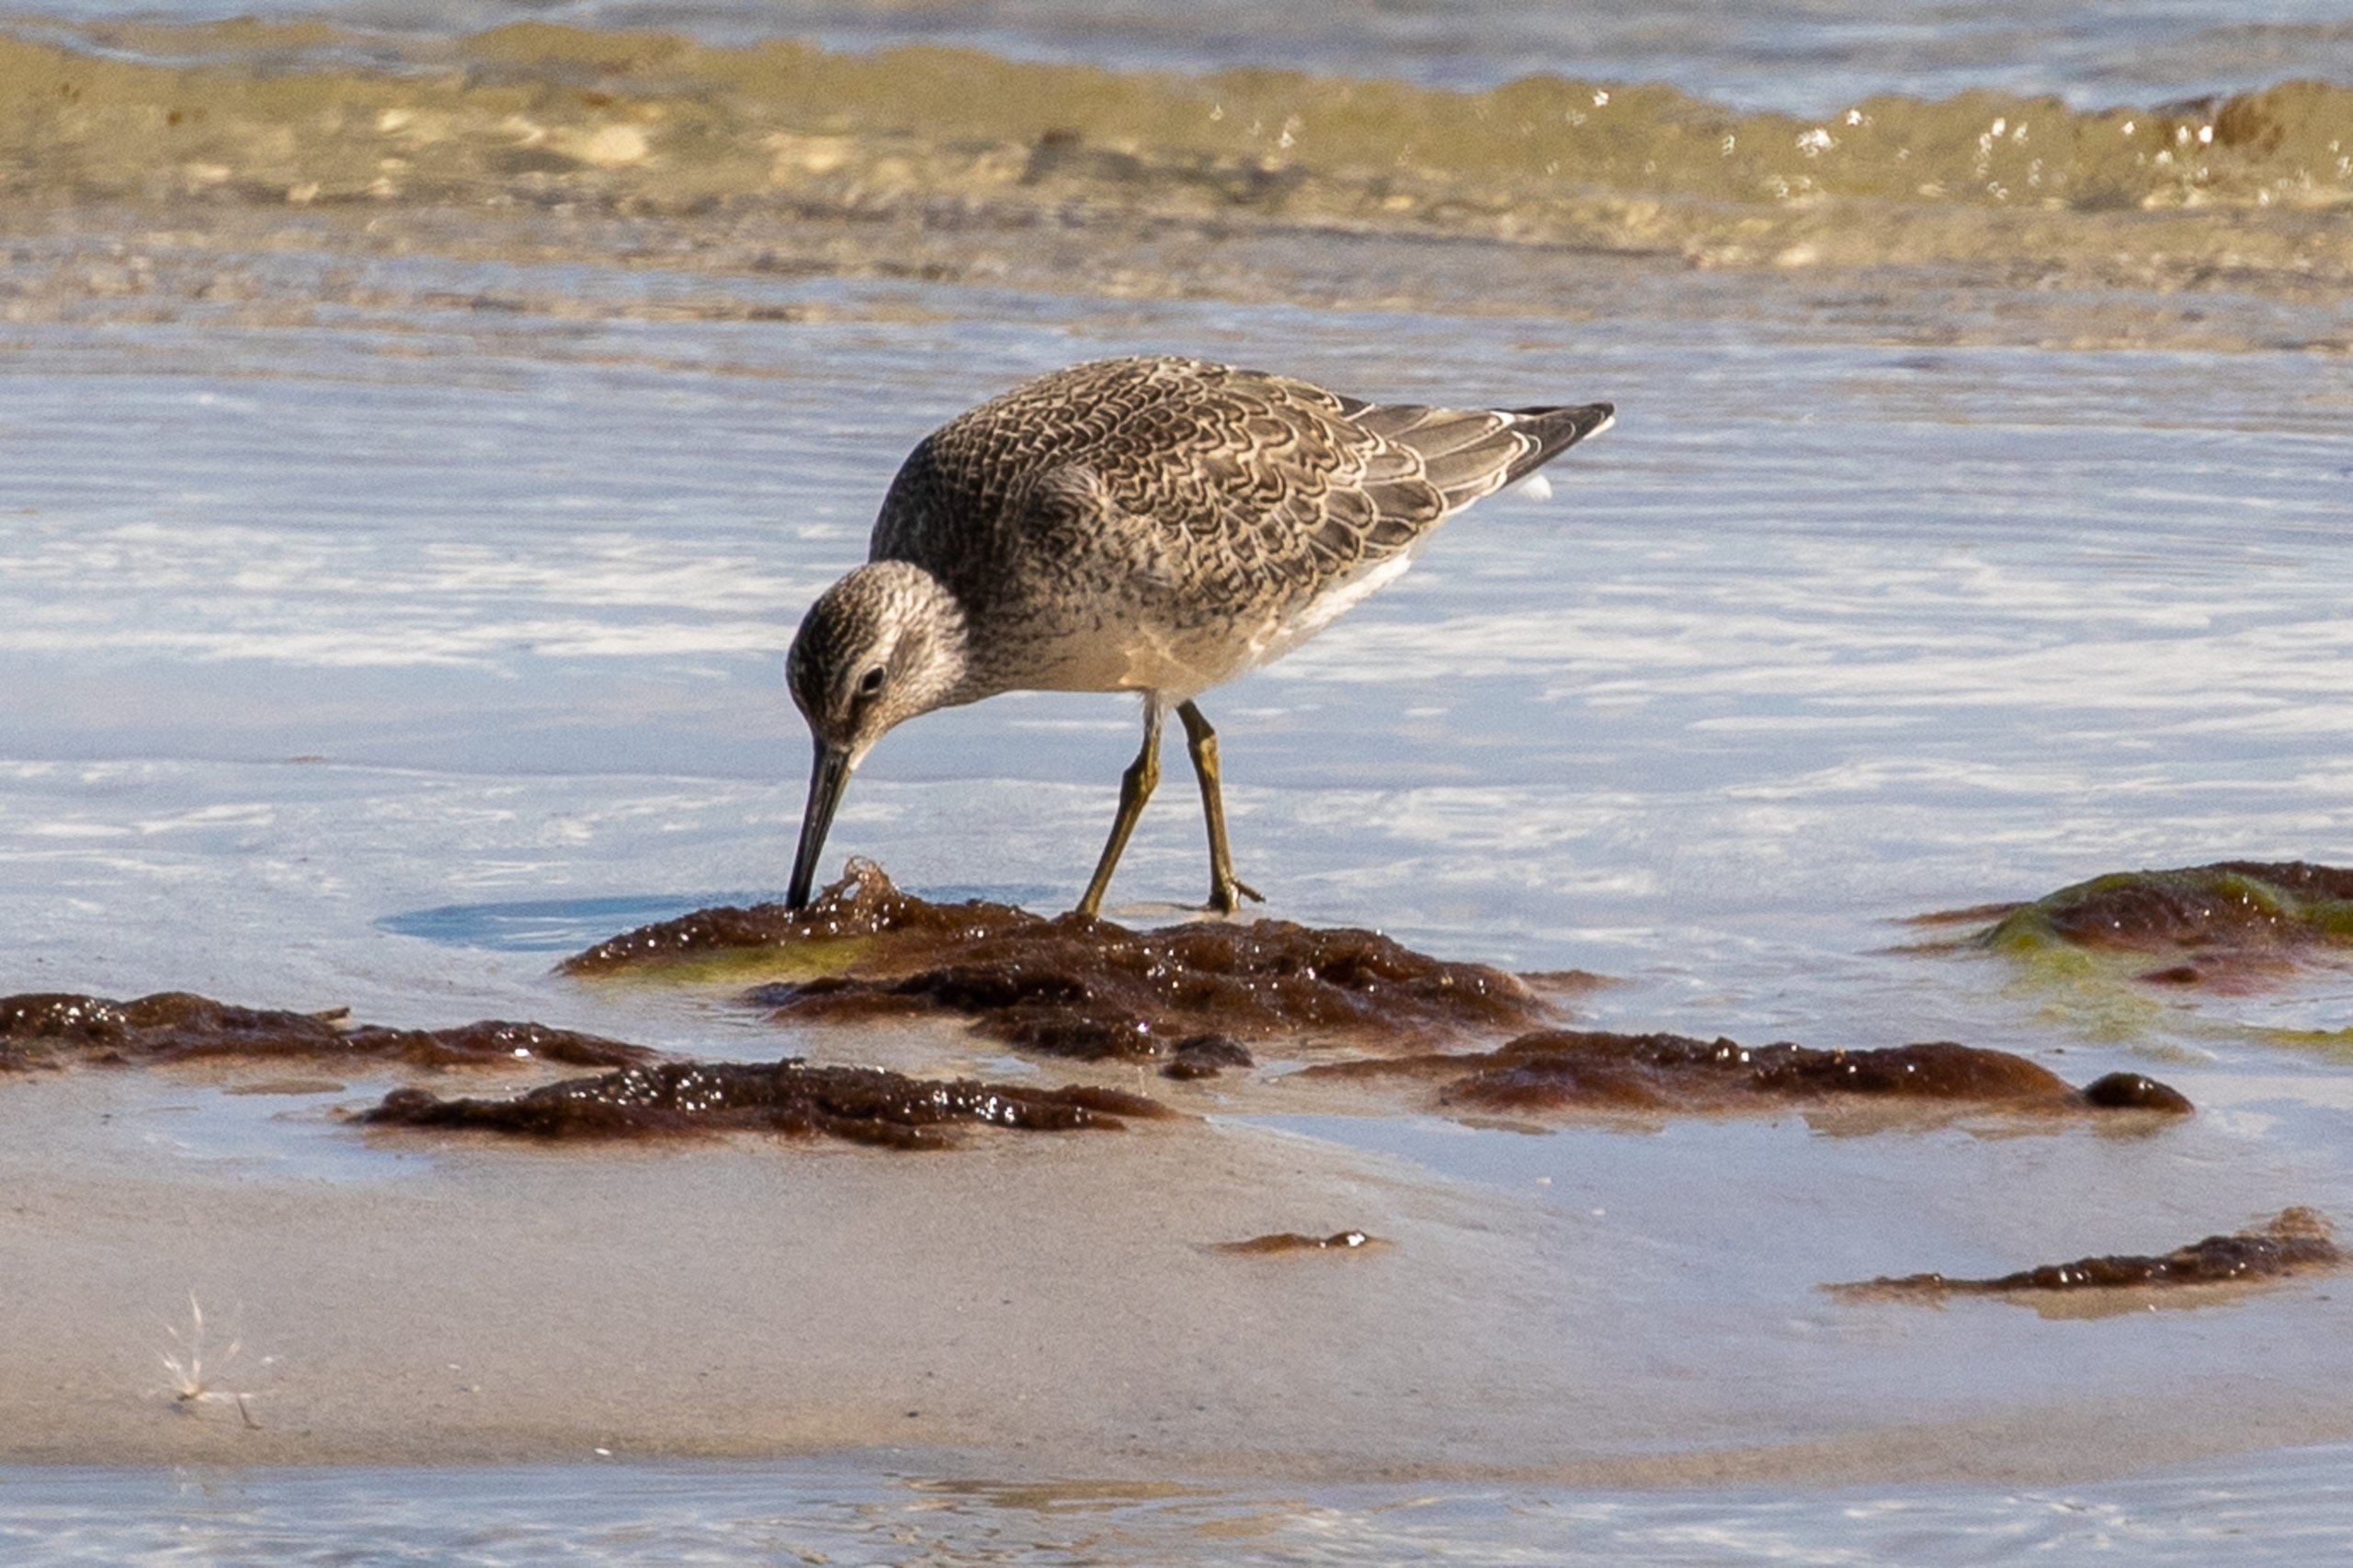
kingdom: Animalia
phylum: Chordata
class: Aves
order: Charadriiformes
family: Scolopacidae
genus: Calidris
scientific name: Calidris canutus
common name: Islandsk ryle
